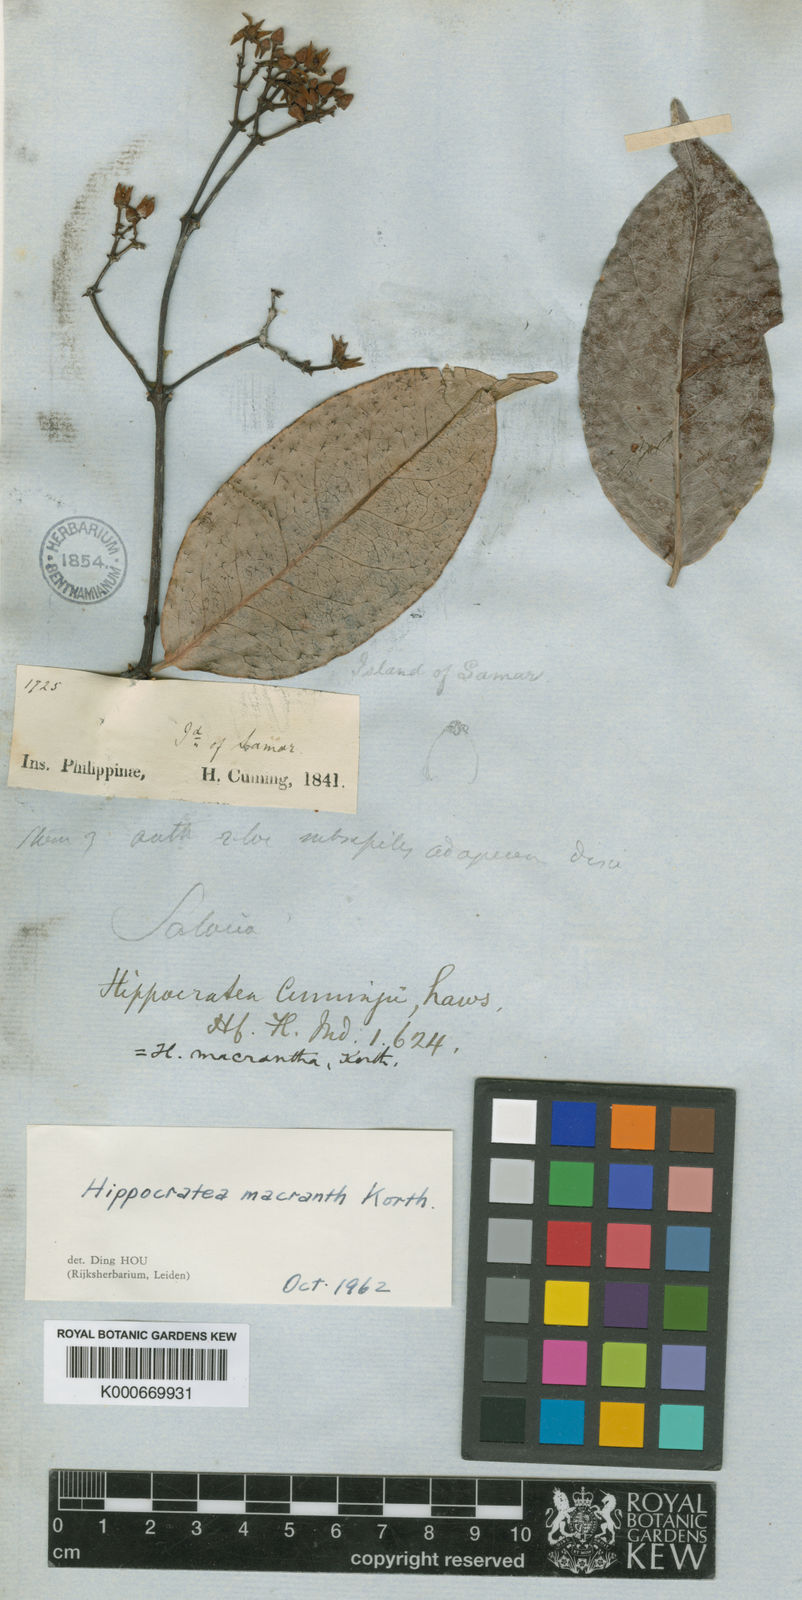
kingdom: Plantae
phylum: Tracheophyta
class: Magnoliopsida
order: Celastrales
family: Celastraceae
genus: Loeseneriella
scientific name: Loeseneriella macrantha
